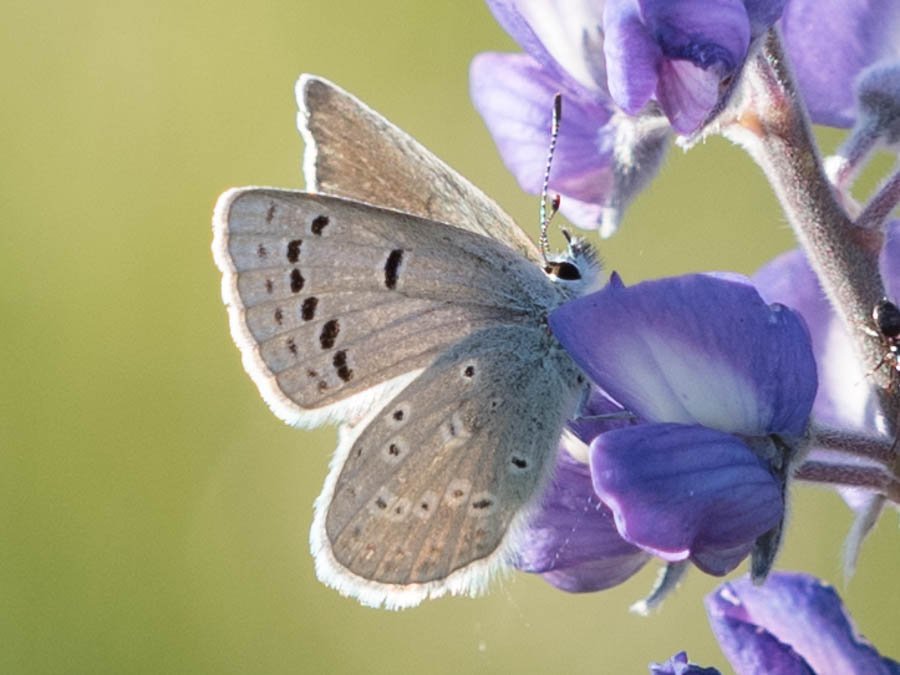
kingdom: Animalia
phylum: Arthropoda
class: Insecta
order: Lepidoptera
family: Lycaenidae
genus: Icaricia
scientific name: Icaricia icarioides
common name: Boisduval's Blue
